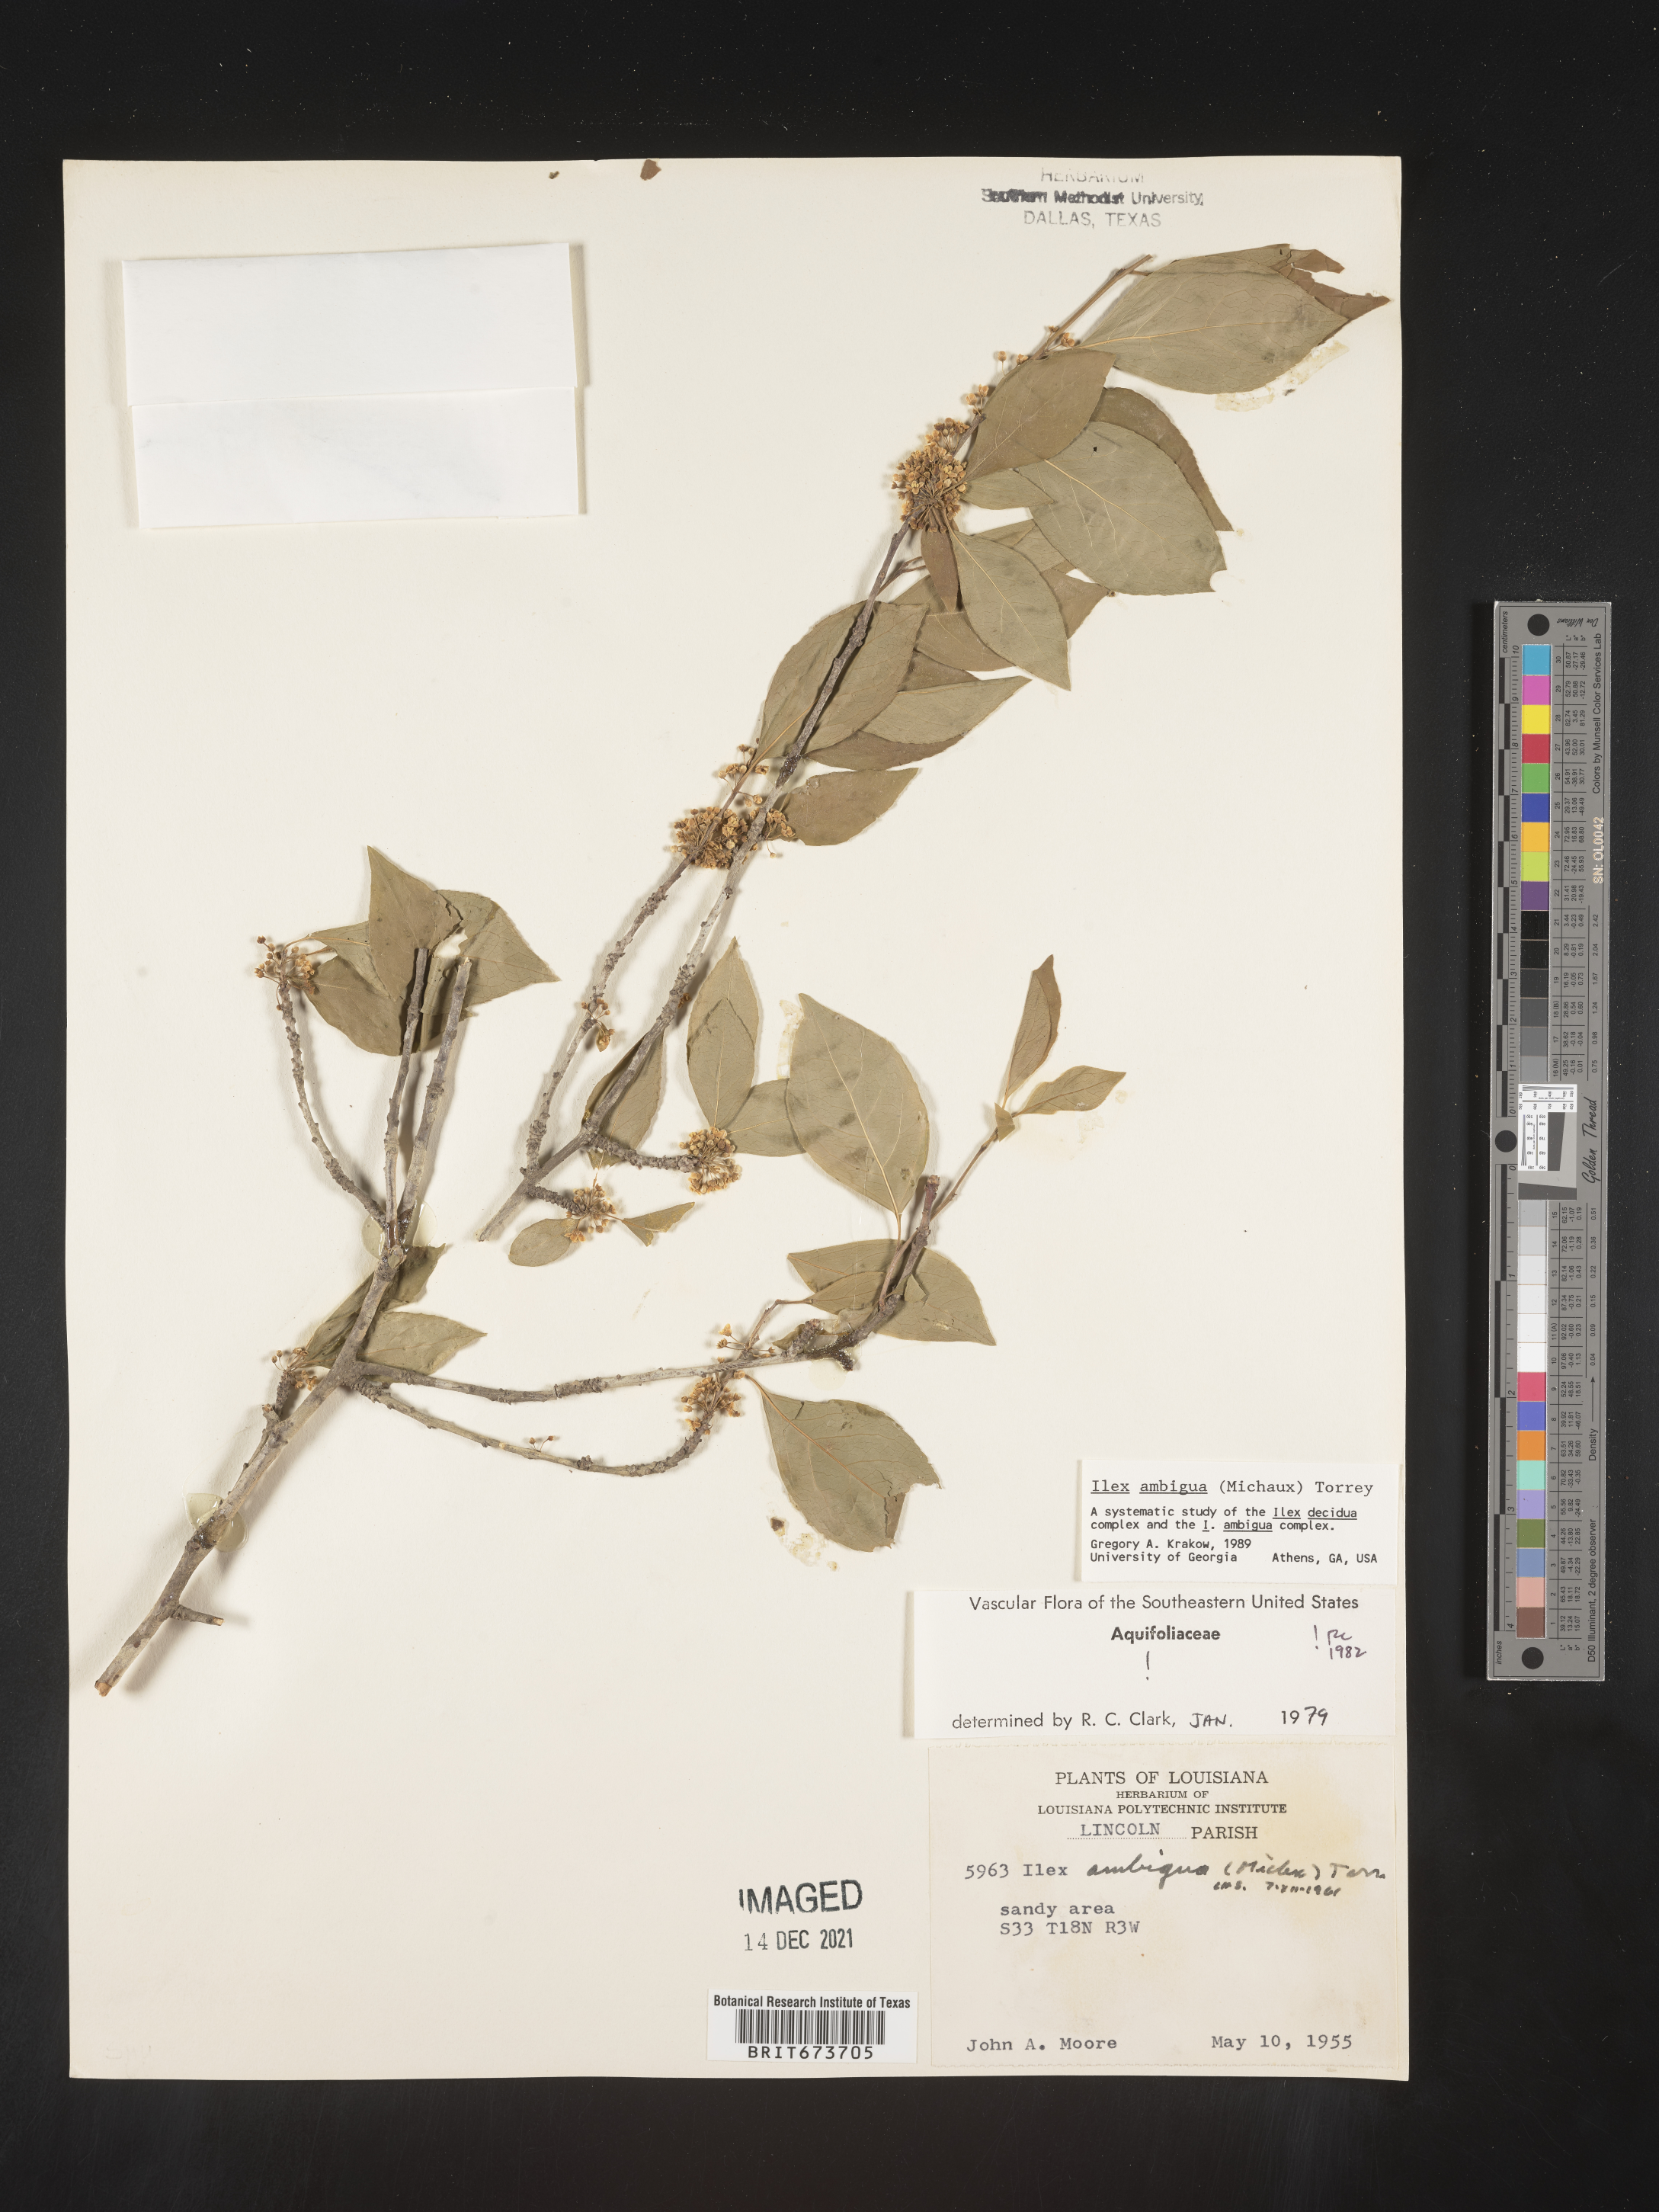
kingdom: Plantae
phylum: Tracheophyta
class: Magnoliopsida
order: Aquifoliales
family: Aquifoliaceae
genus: Ilex
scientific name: Ilex ambigua
